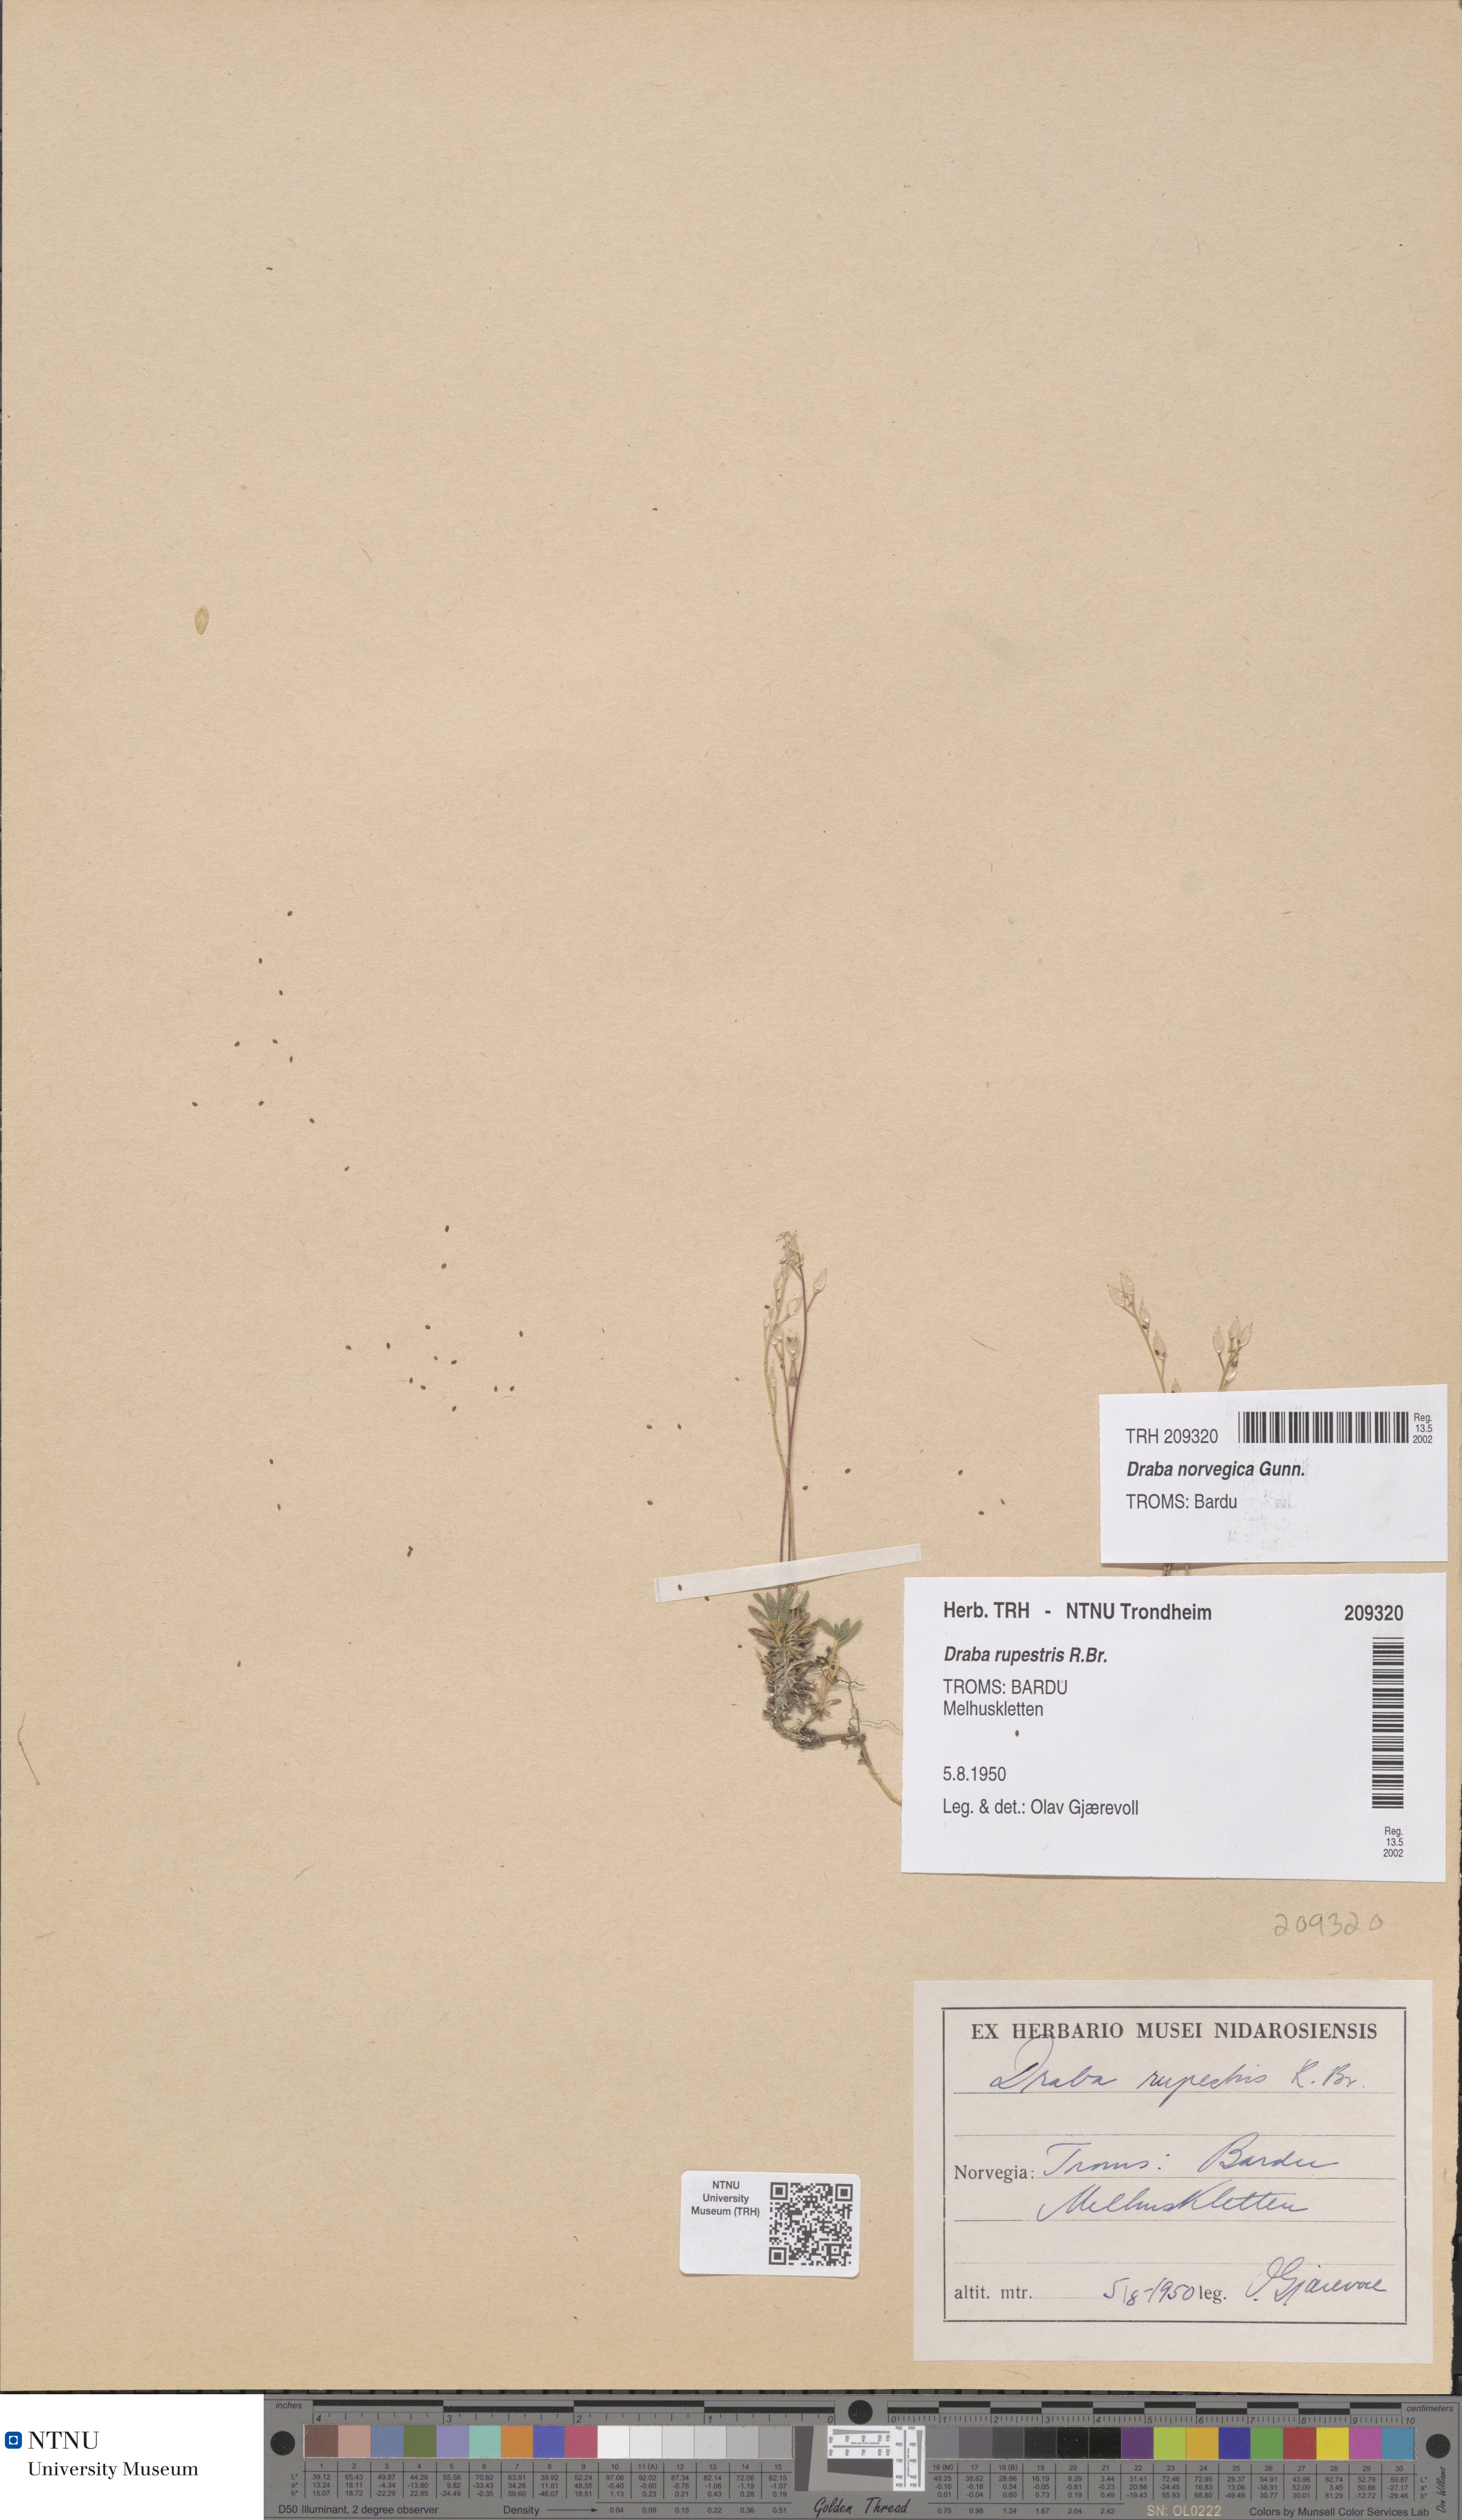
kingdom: Plantae
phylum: Tracheophyta
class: Magnoliopsida
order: Brassicales
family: Brassicaceae
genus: Draba
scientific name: Draba norvegica
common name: Rock whitlowgrass
